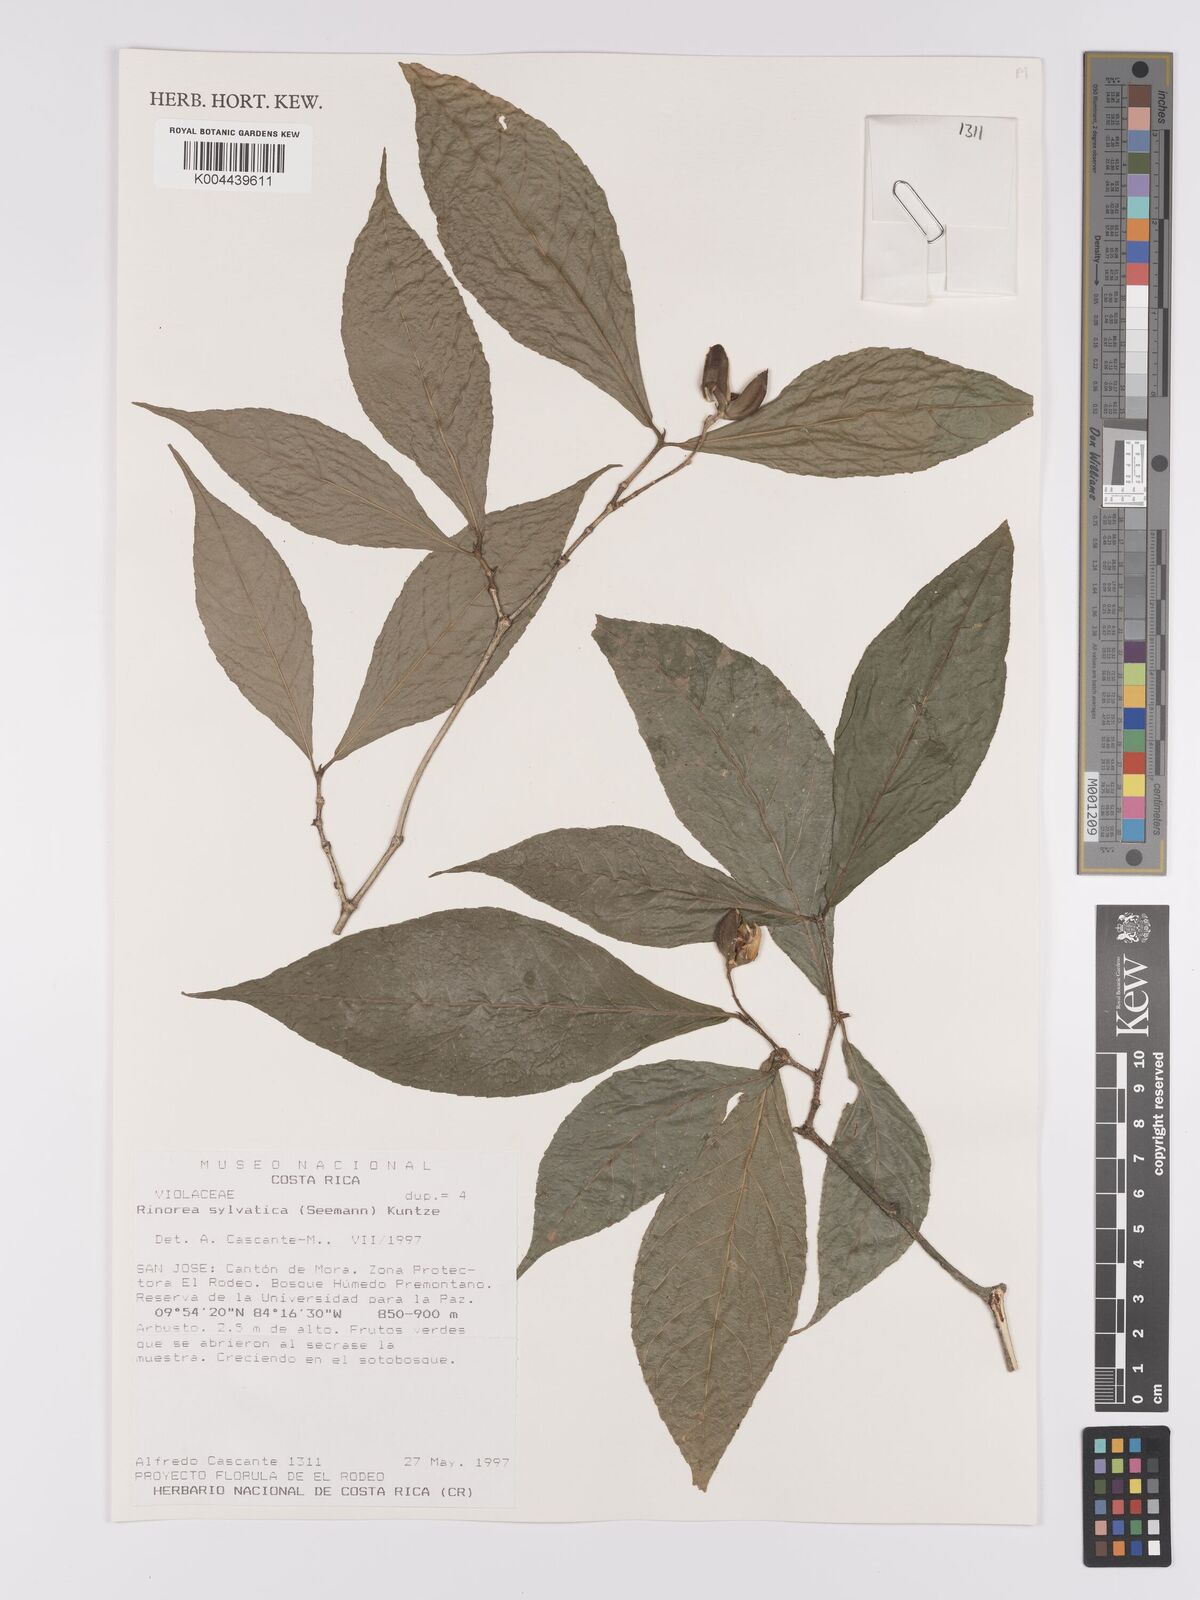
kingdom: Plantae
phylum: Tracheophyta
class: Magnoliopsida
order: Malpighiales
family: Violaceae
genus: Rinorea
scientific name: Rinorea sylvatica
